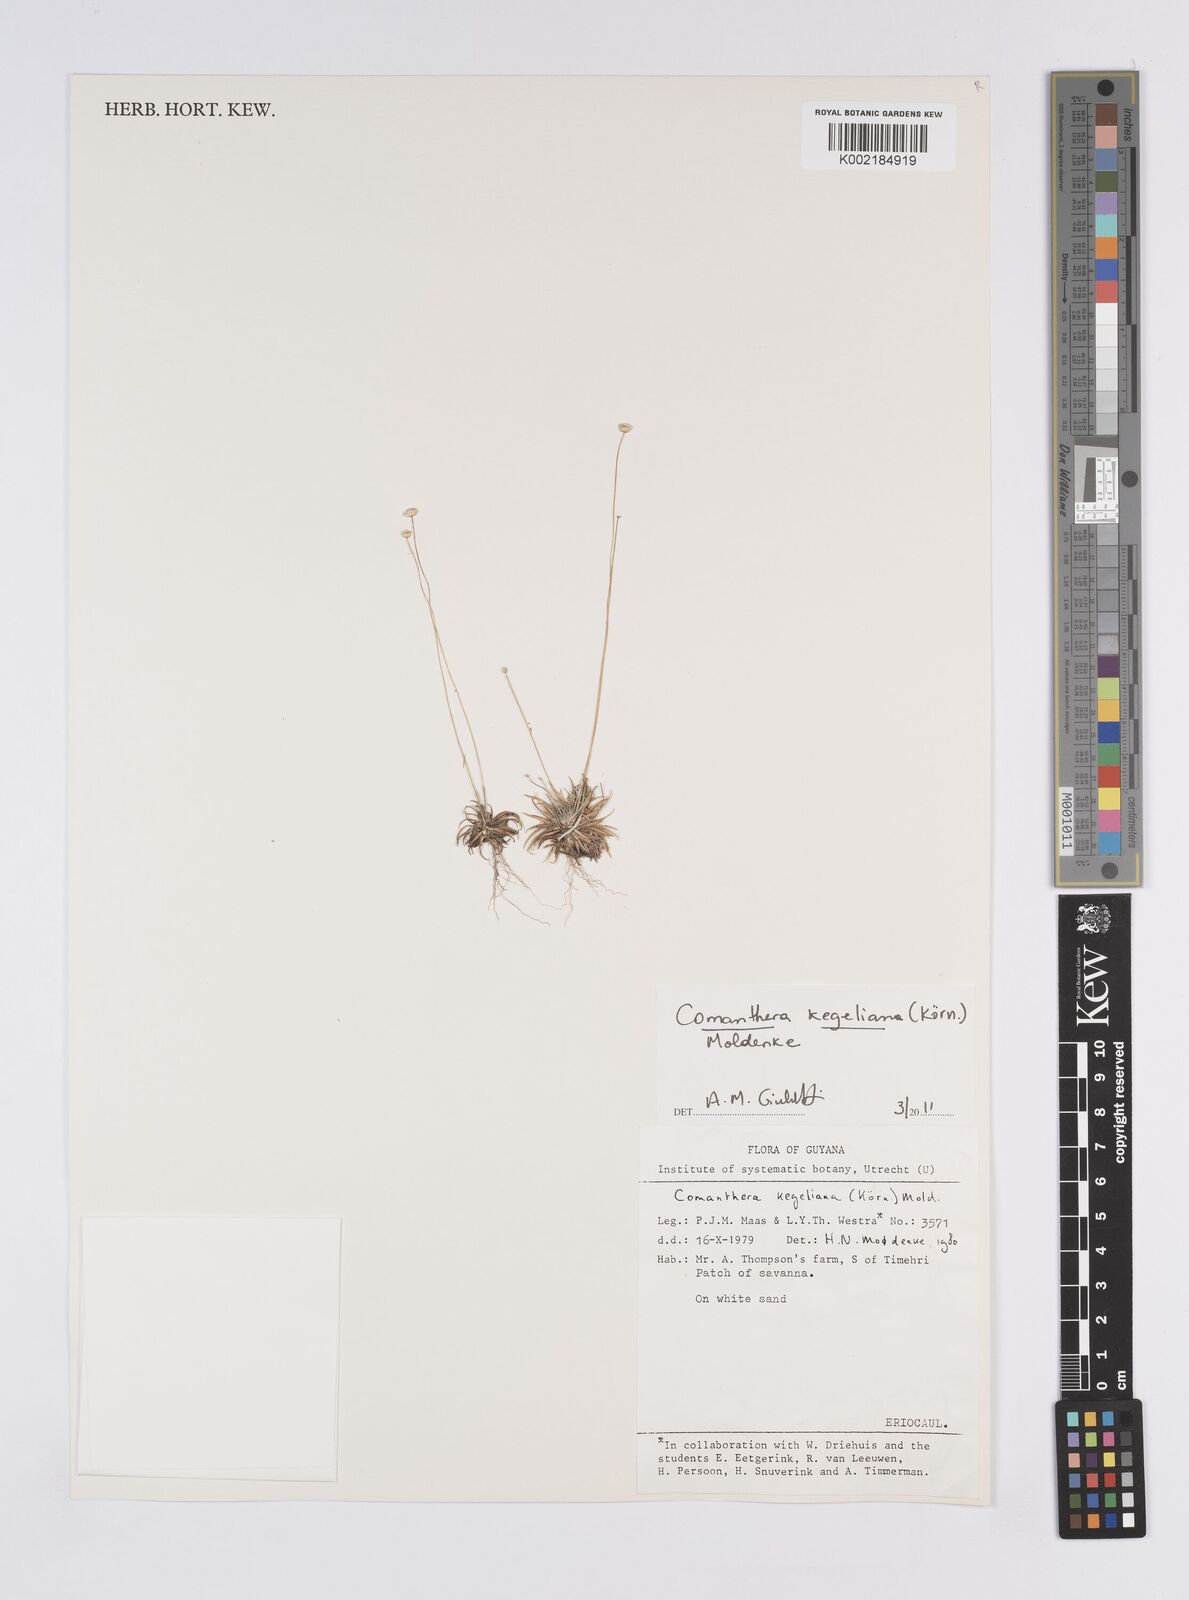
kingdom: Plantae
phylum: Tracheophyta
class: Liliopsida
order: Poales
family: Eriocaulaceae
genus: Comanthera
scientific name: Comanthera kegeliana
